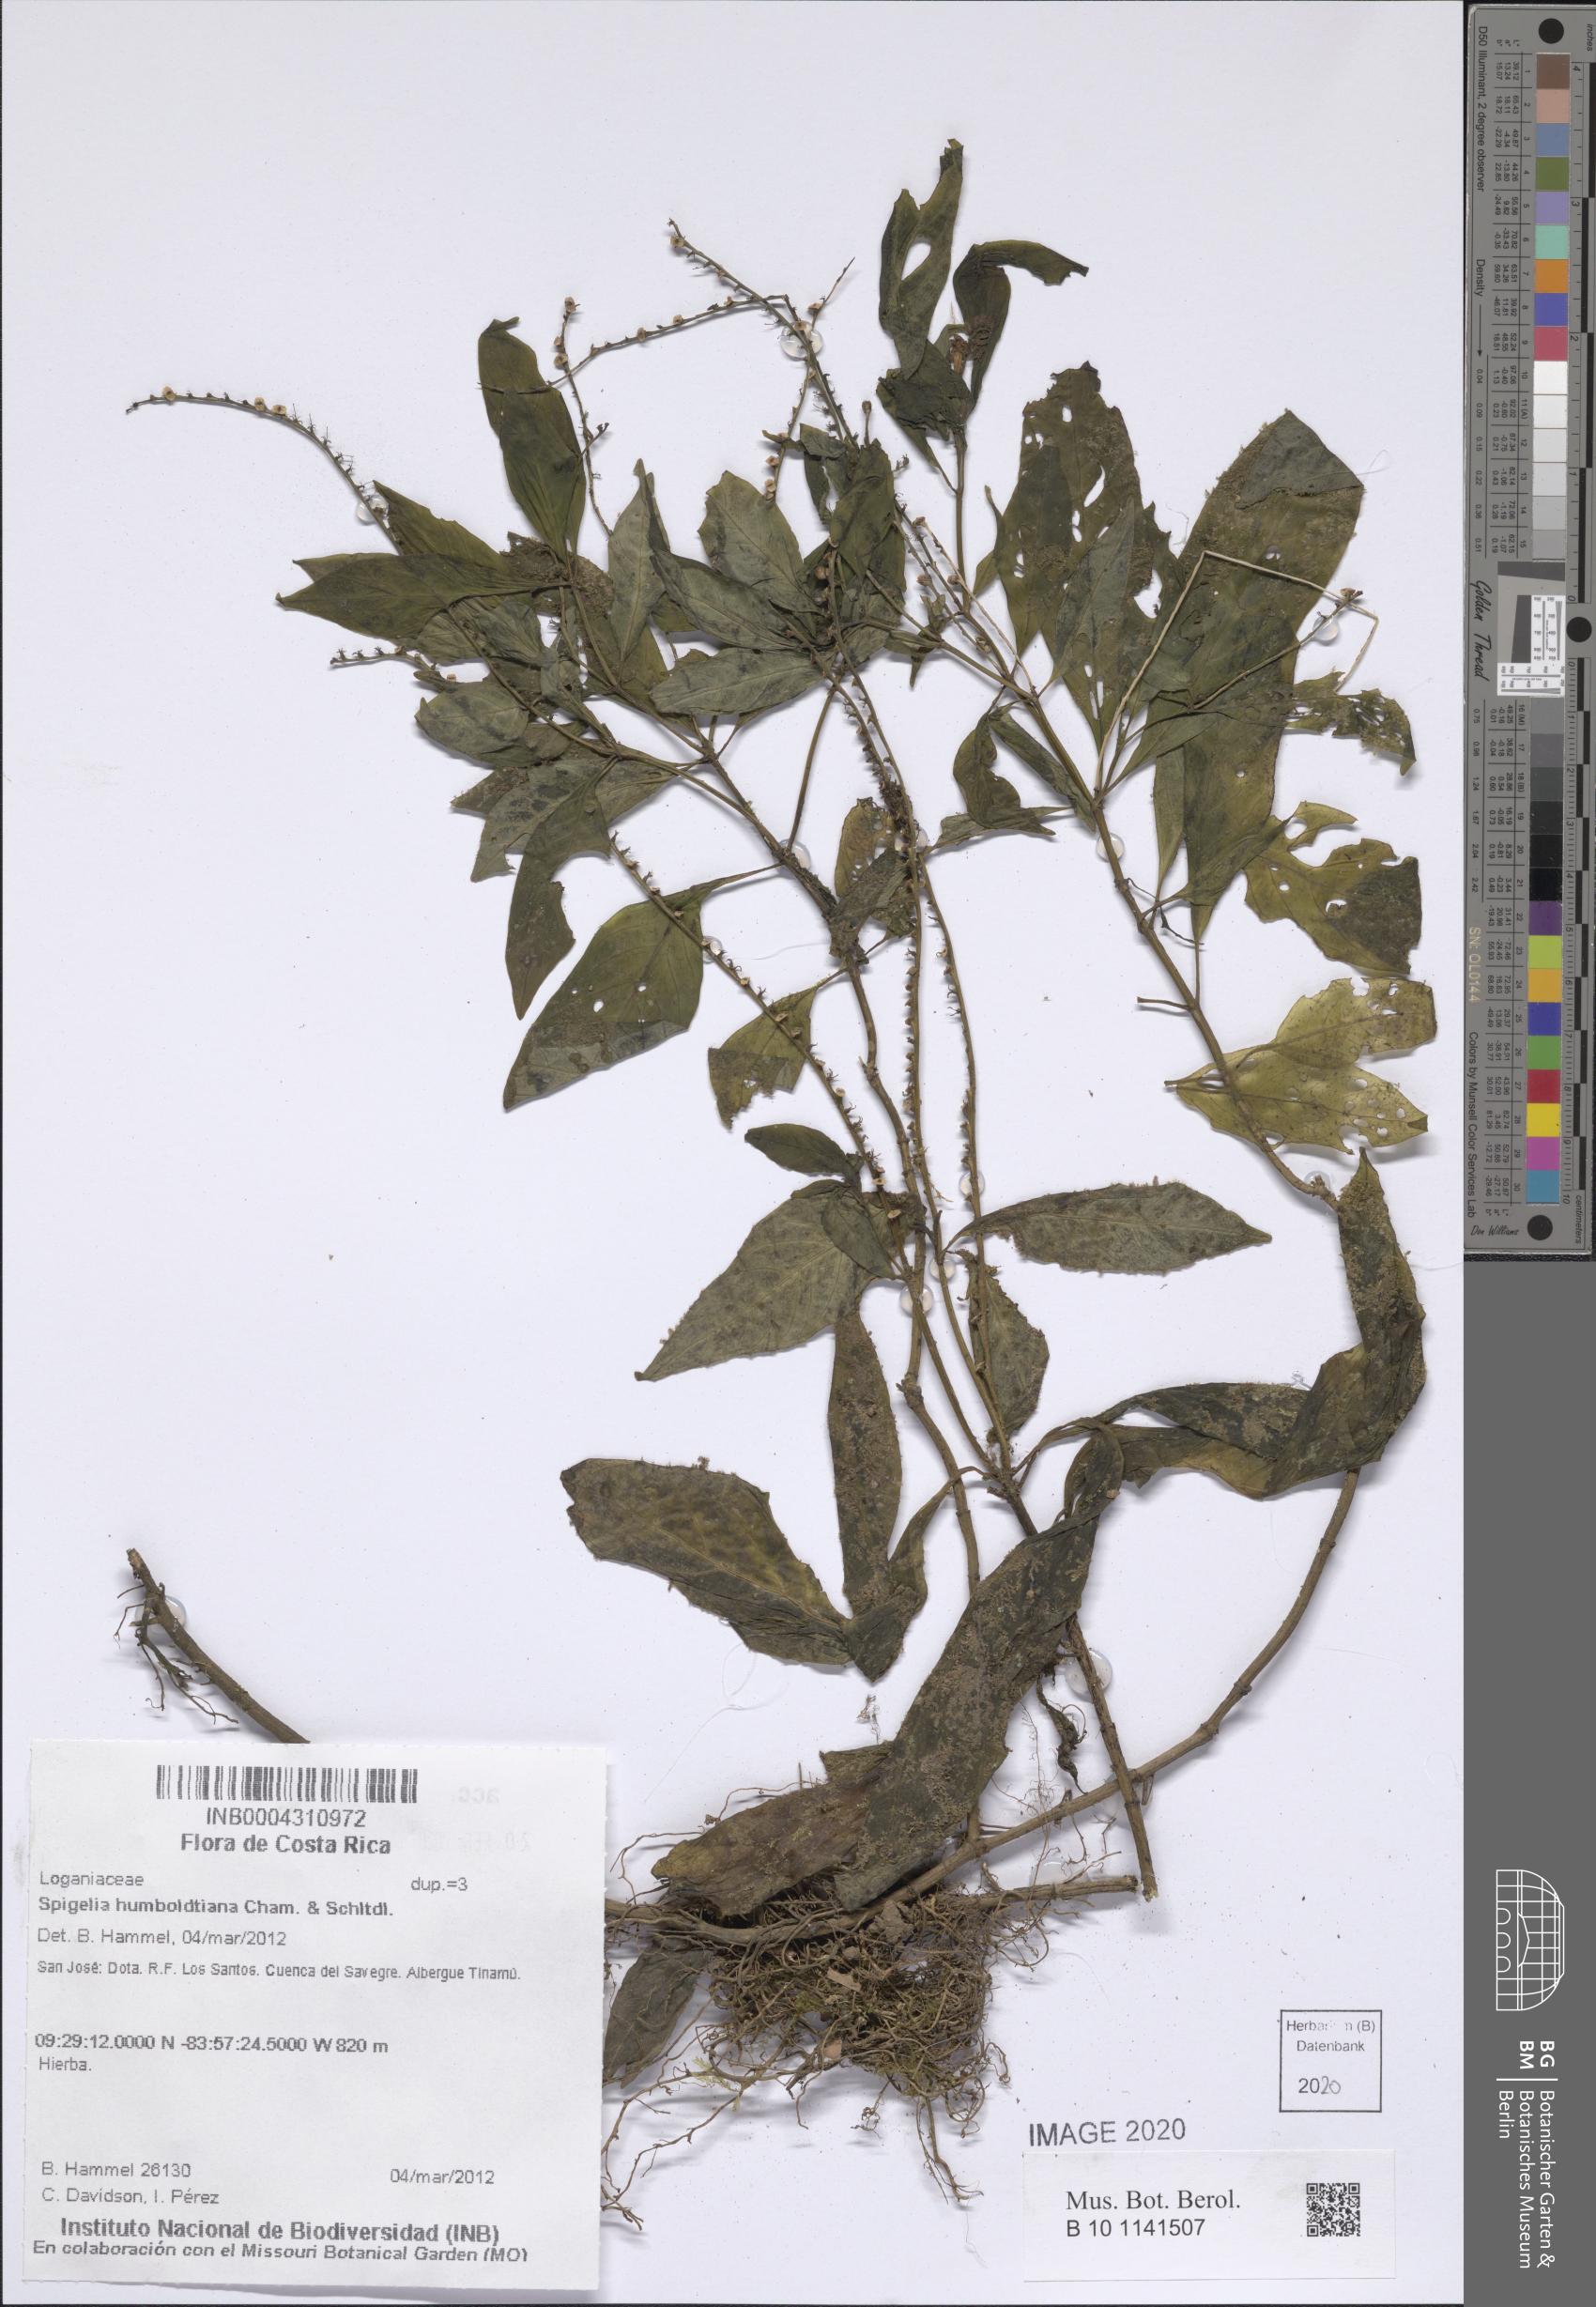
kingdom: Plantae
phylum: Tracheophyta
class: Magnoliopsida
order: Gentianales
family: Loganiaceae
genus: Spigelia
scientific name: Spigelia humboldtiana
